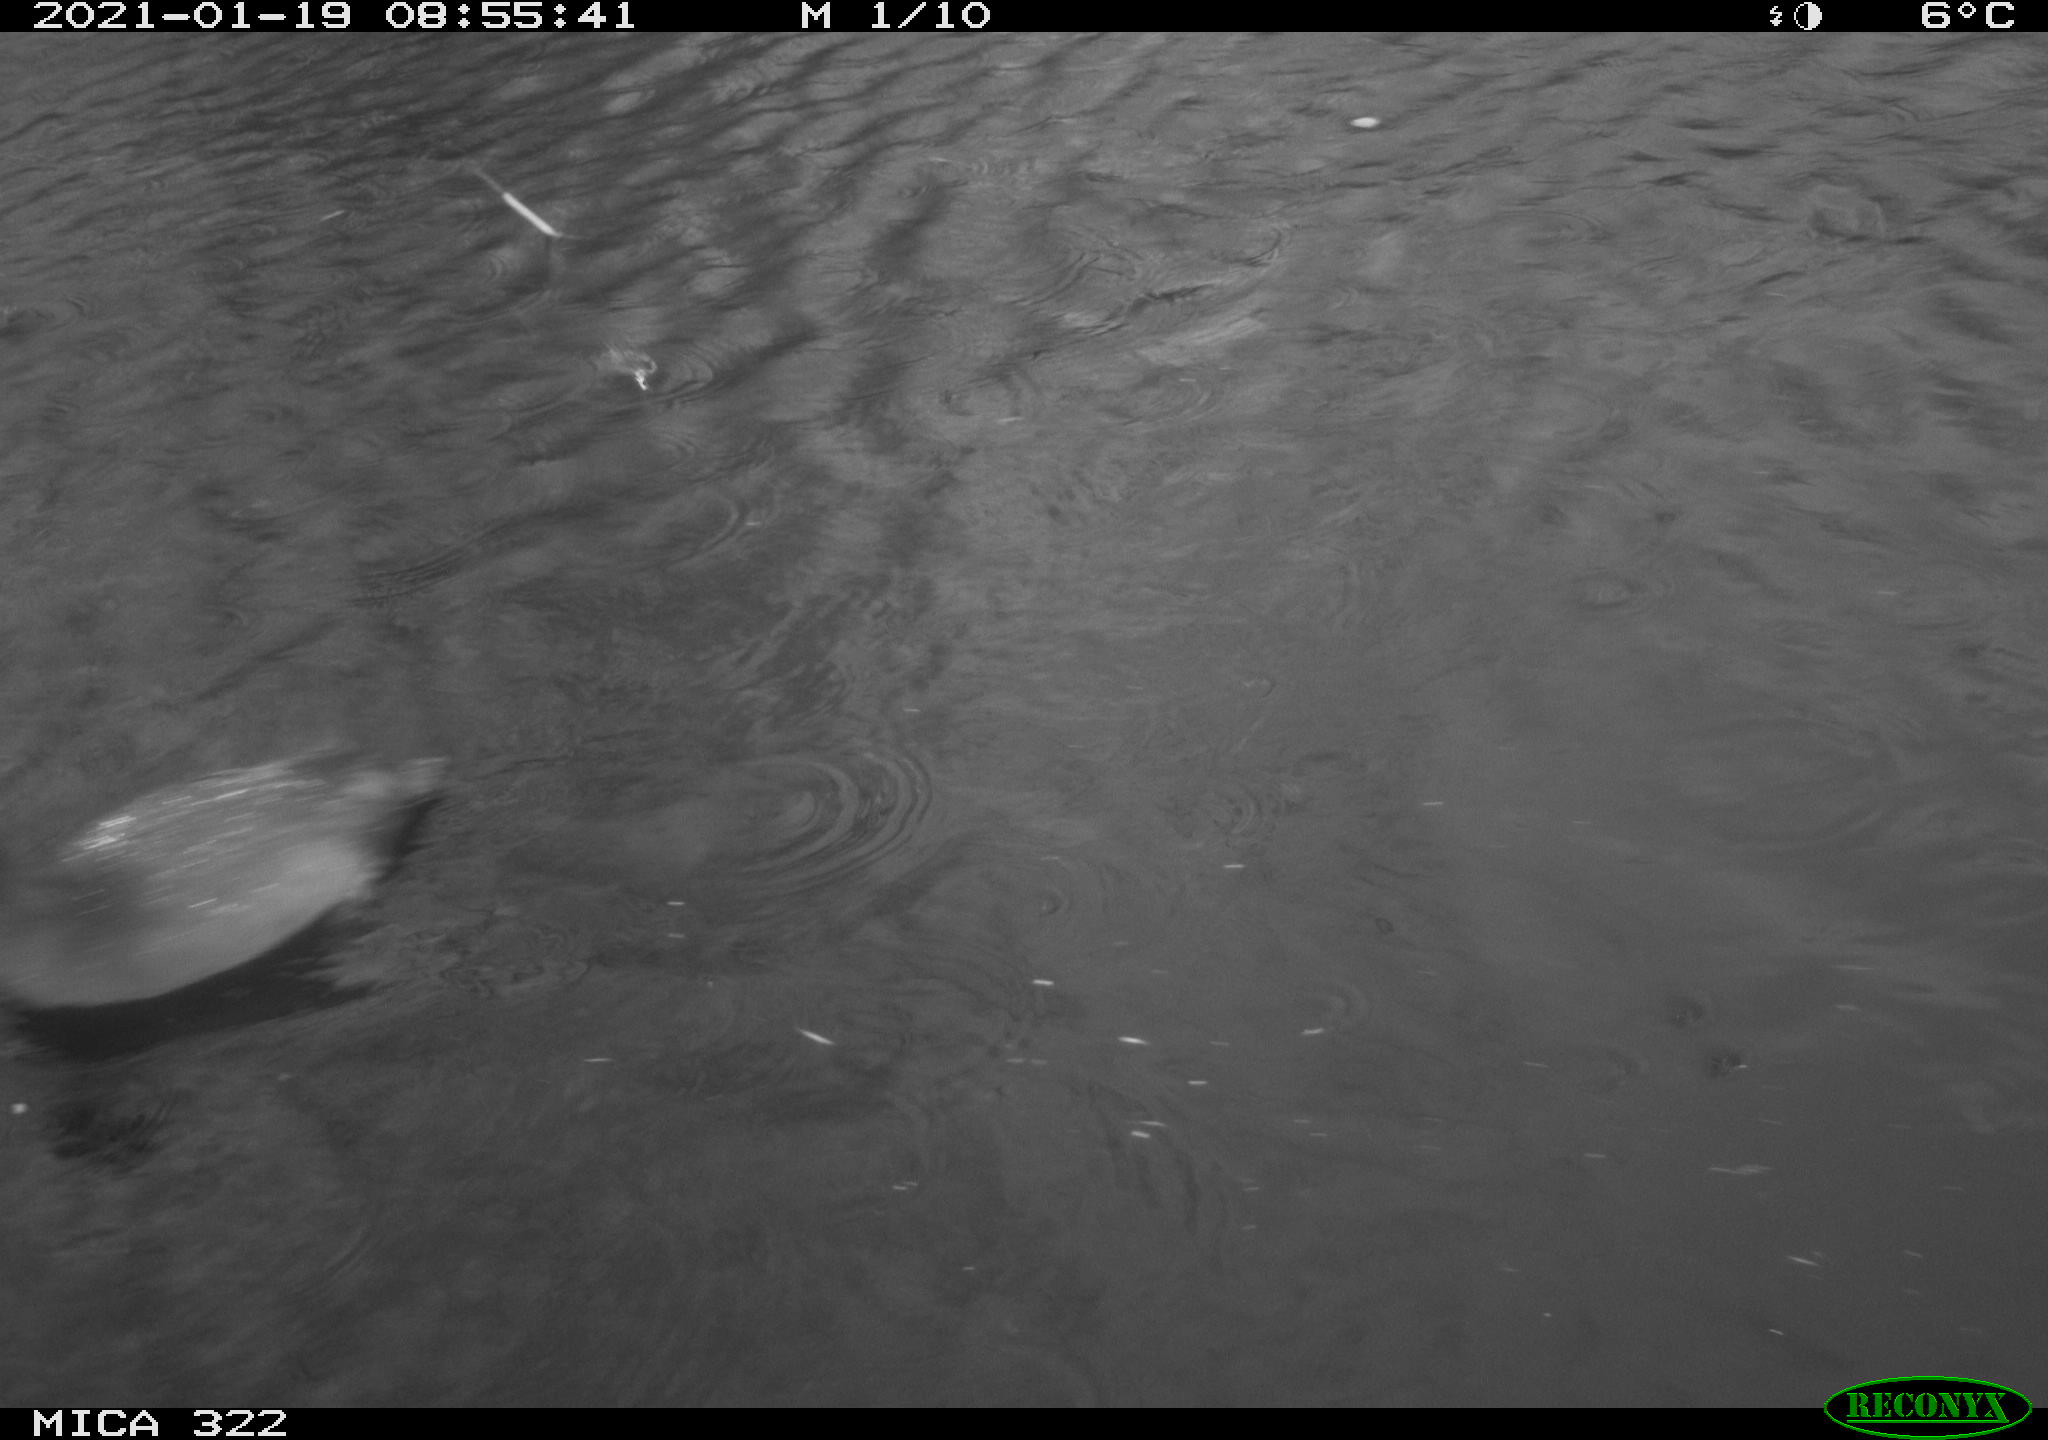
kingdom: Animalia
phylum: Chordata
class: Aves
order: Gruiformes
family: Rallidae
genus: Fulica
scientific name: Fulica atra
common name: Eurasian coot
